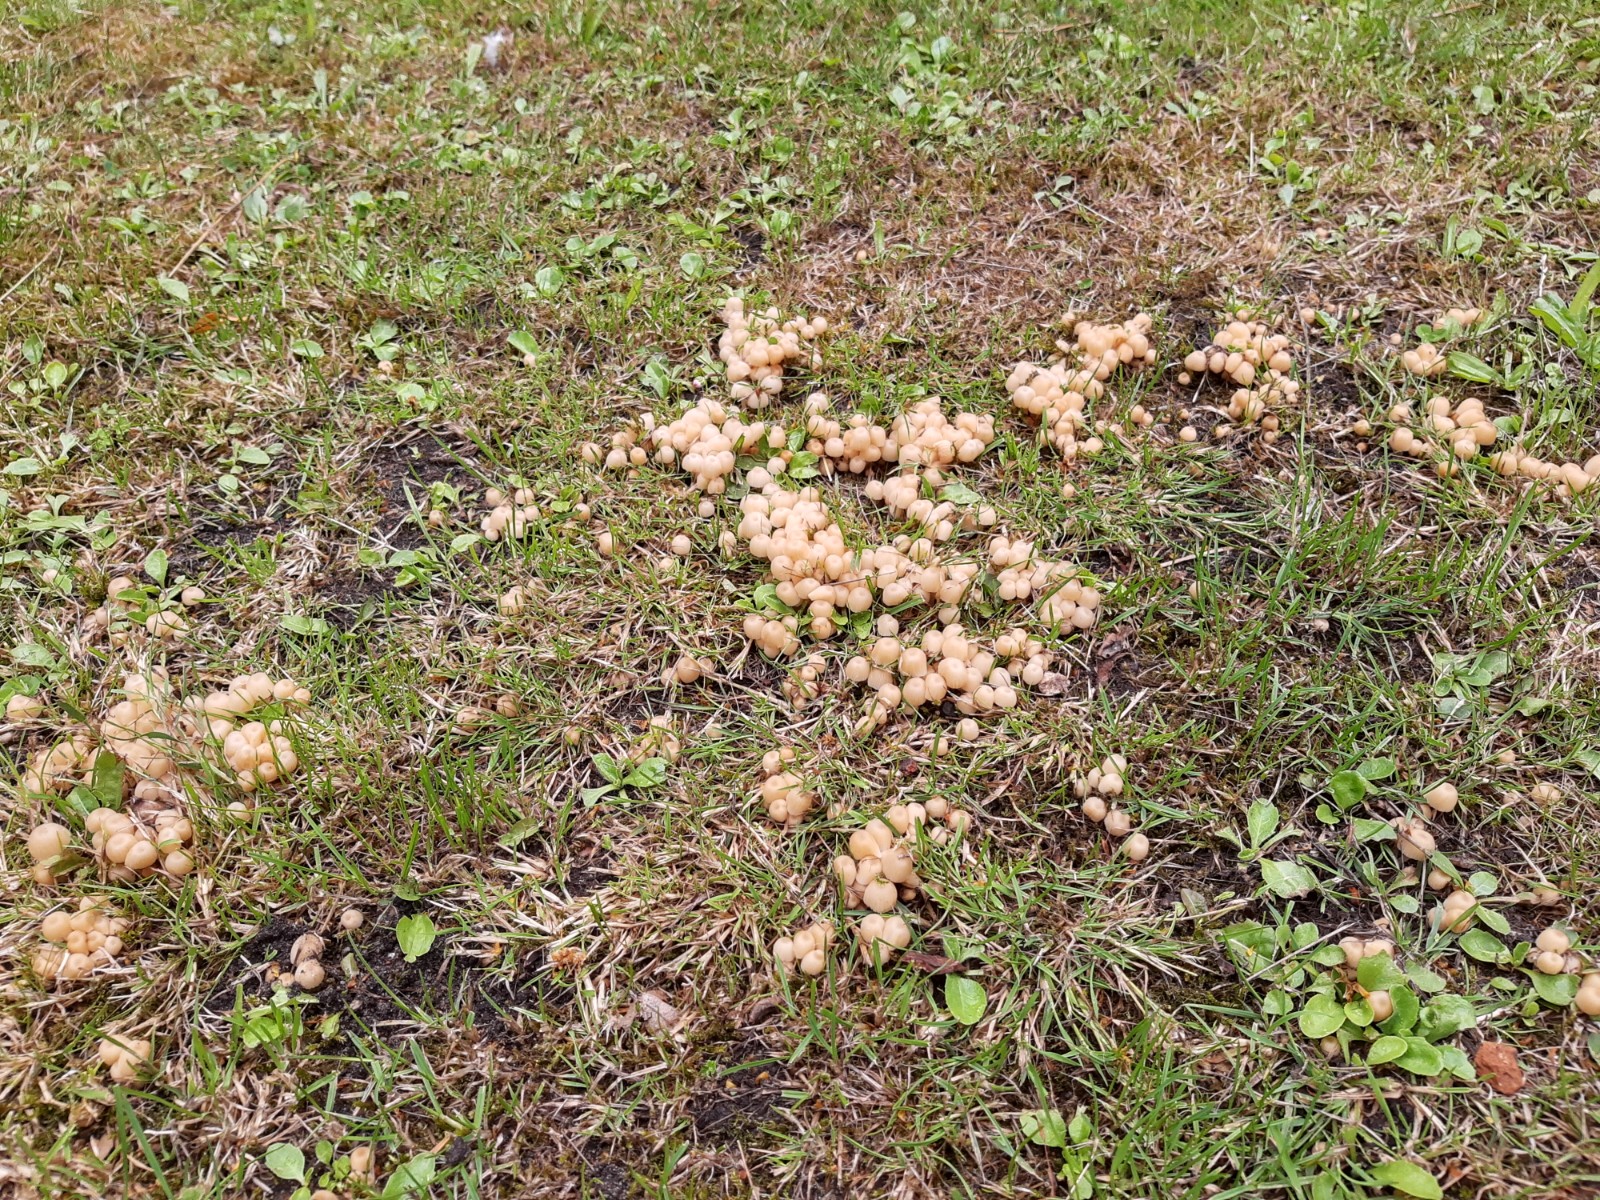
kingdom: Fungi
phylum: Basidiomycota
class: Agaricomycetes
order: Agaricales
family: Psathyrellaceae
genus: Coprinellus
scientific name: Coprinellus disseminatus
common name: bredsået blækhat
